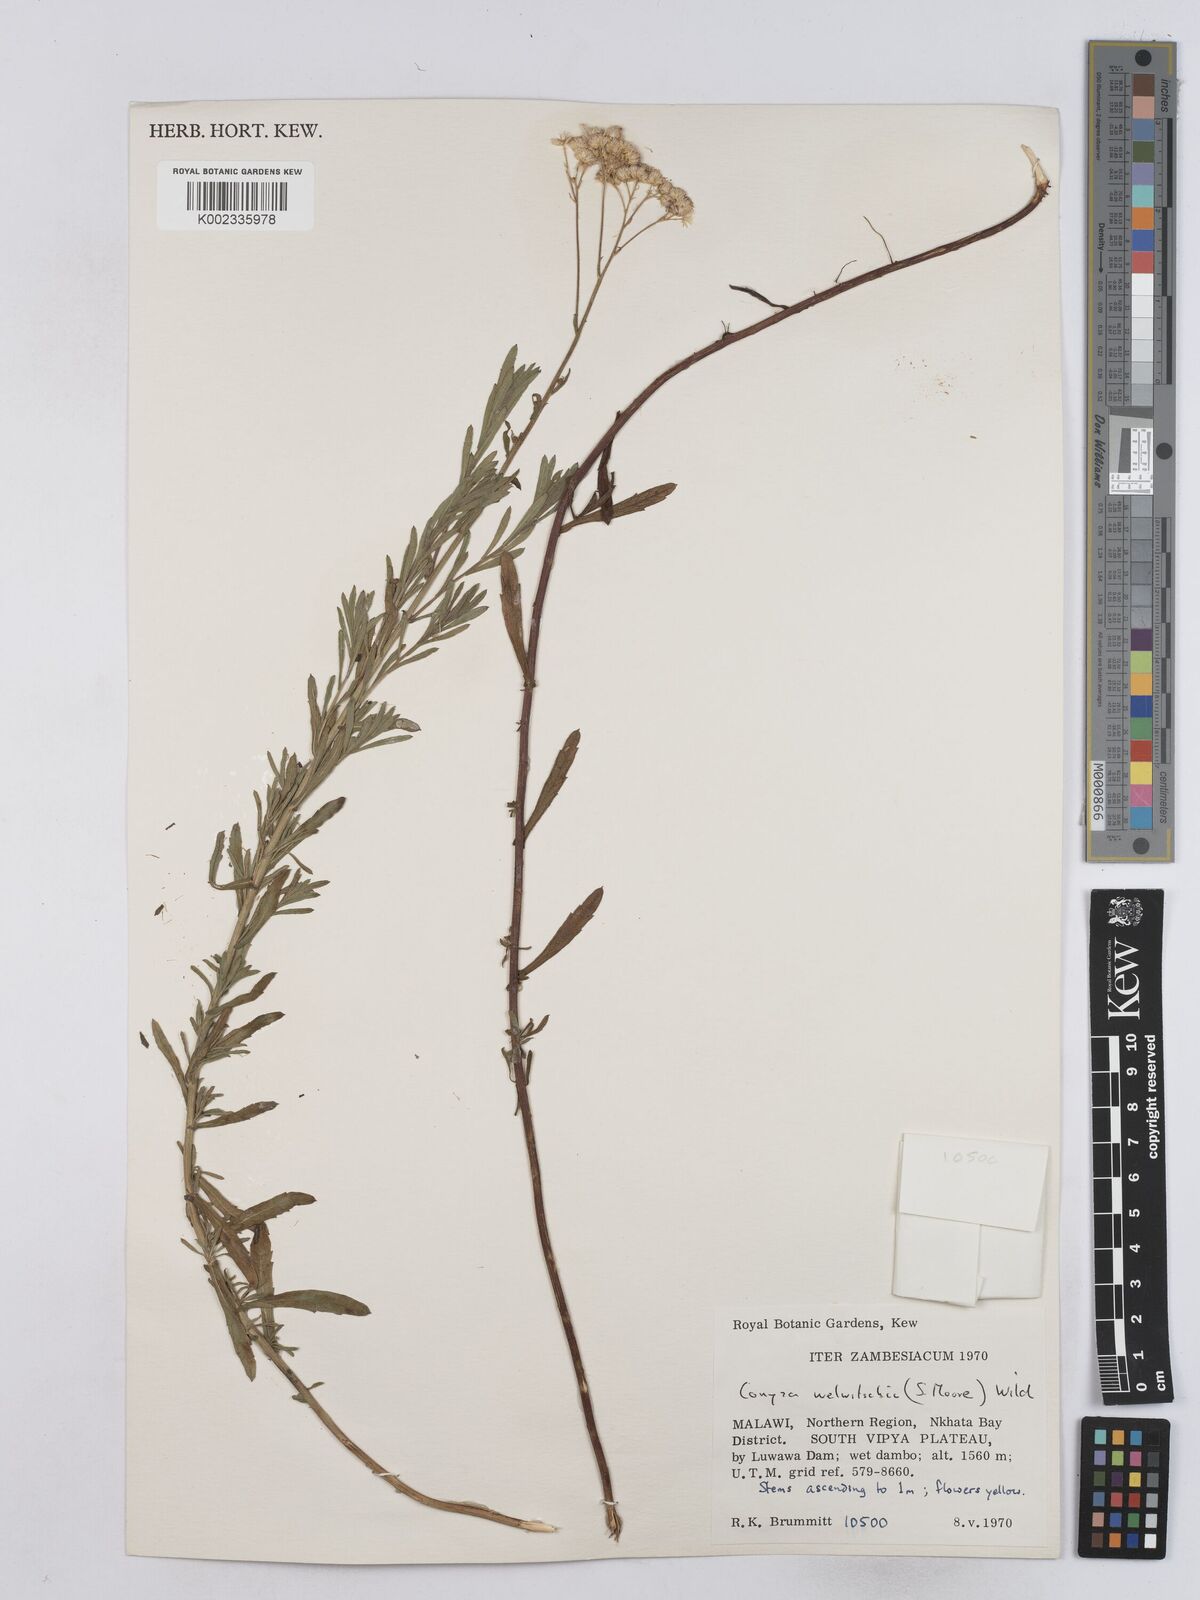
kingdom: Plantae
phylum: Tracheophyta
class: Magnoliopsida
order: Asterales
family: Asteraceae
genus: Nidorella
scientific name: Nidorella welwitschii
